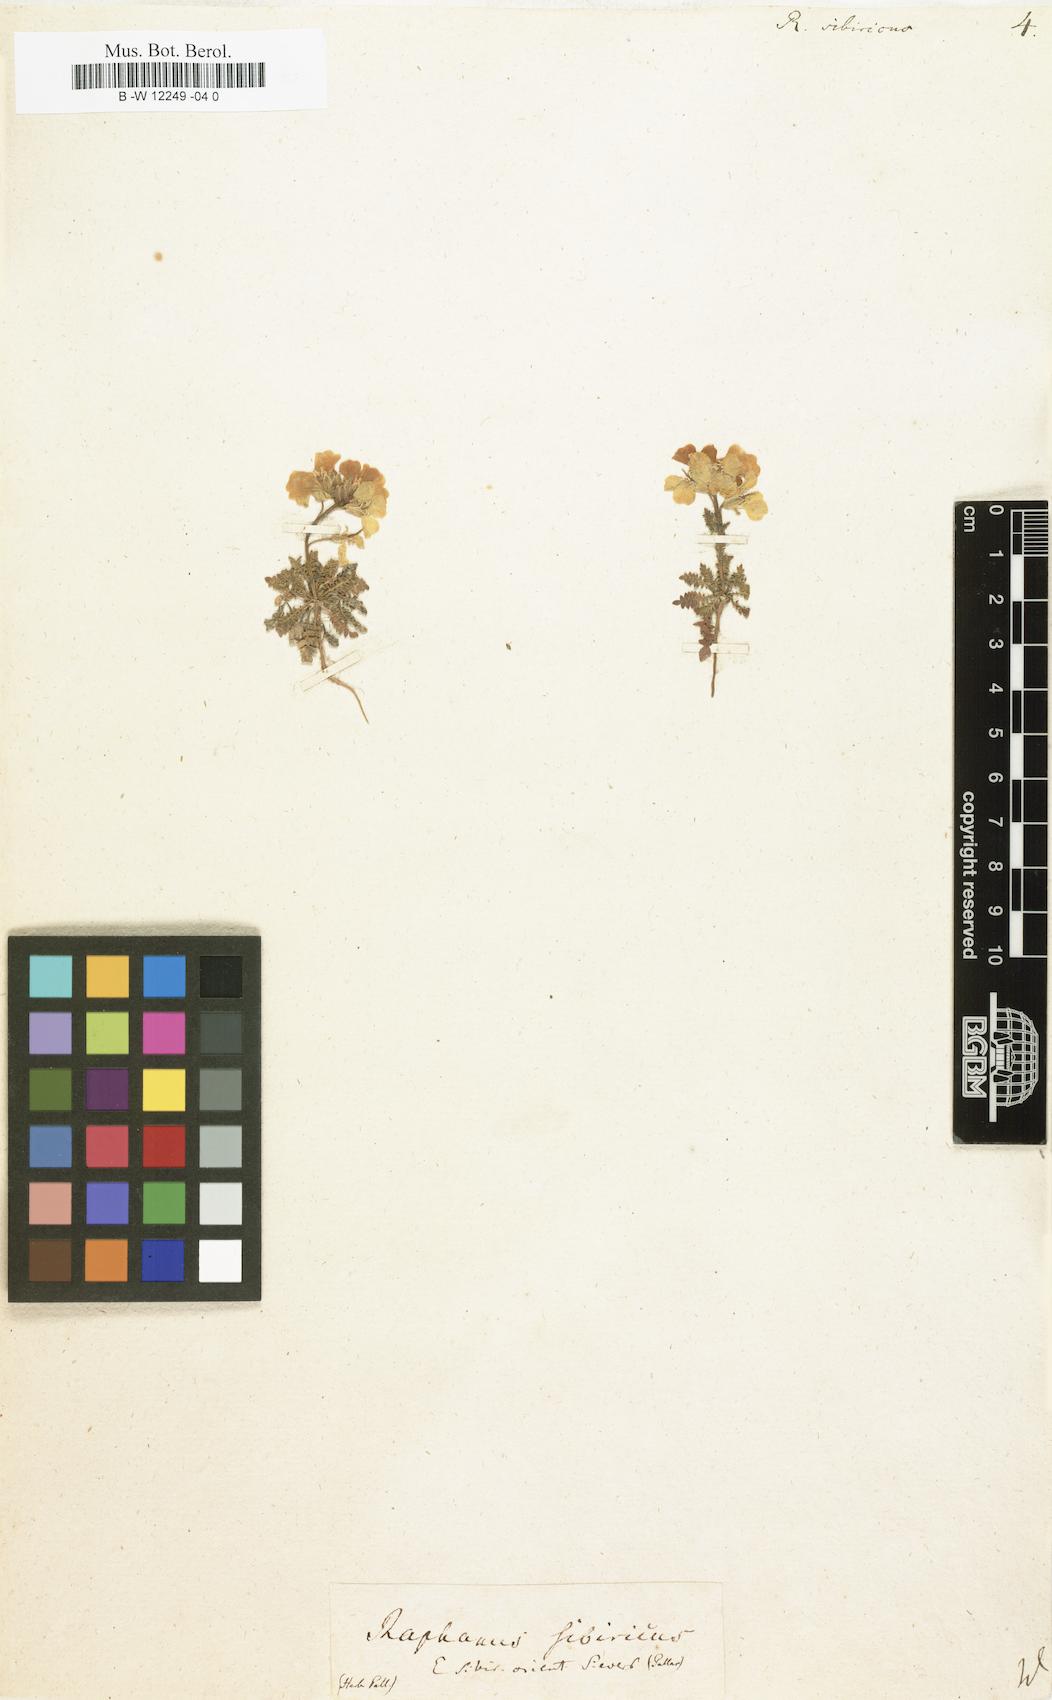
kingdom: Plantae
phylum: Tracheophyta
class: Magnoliopsida
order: Brassicales
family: Brassicaceae
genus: Chorispora
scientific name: Chorispora sibirica
